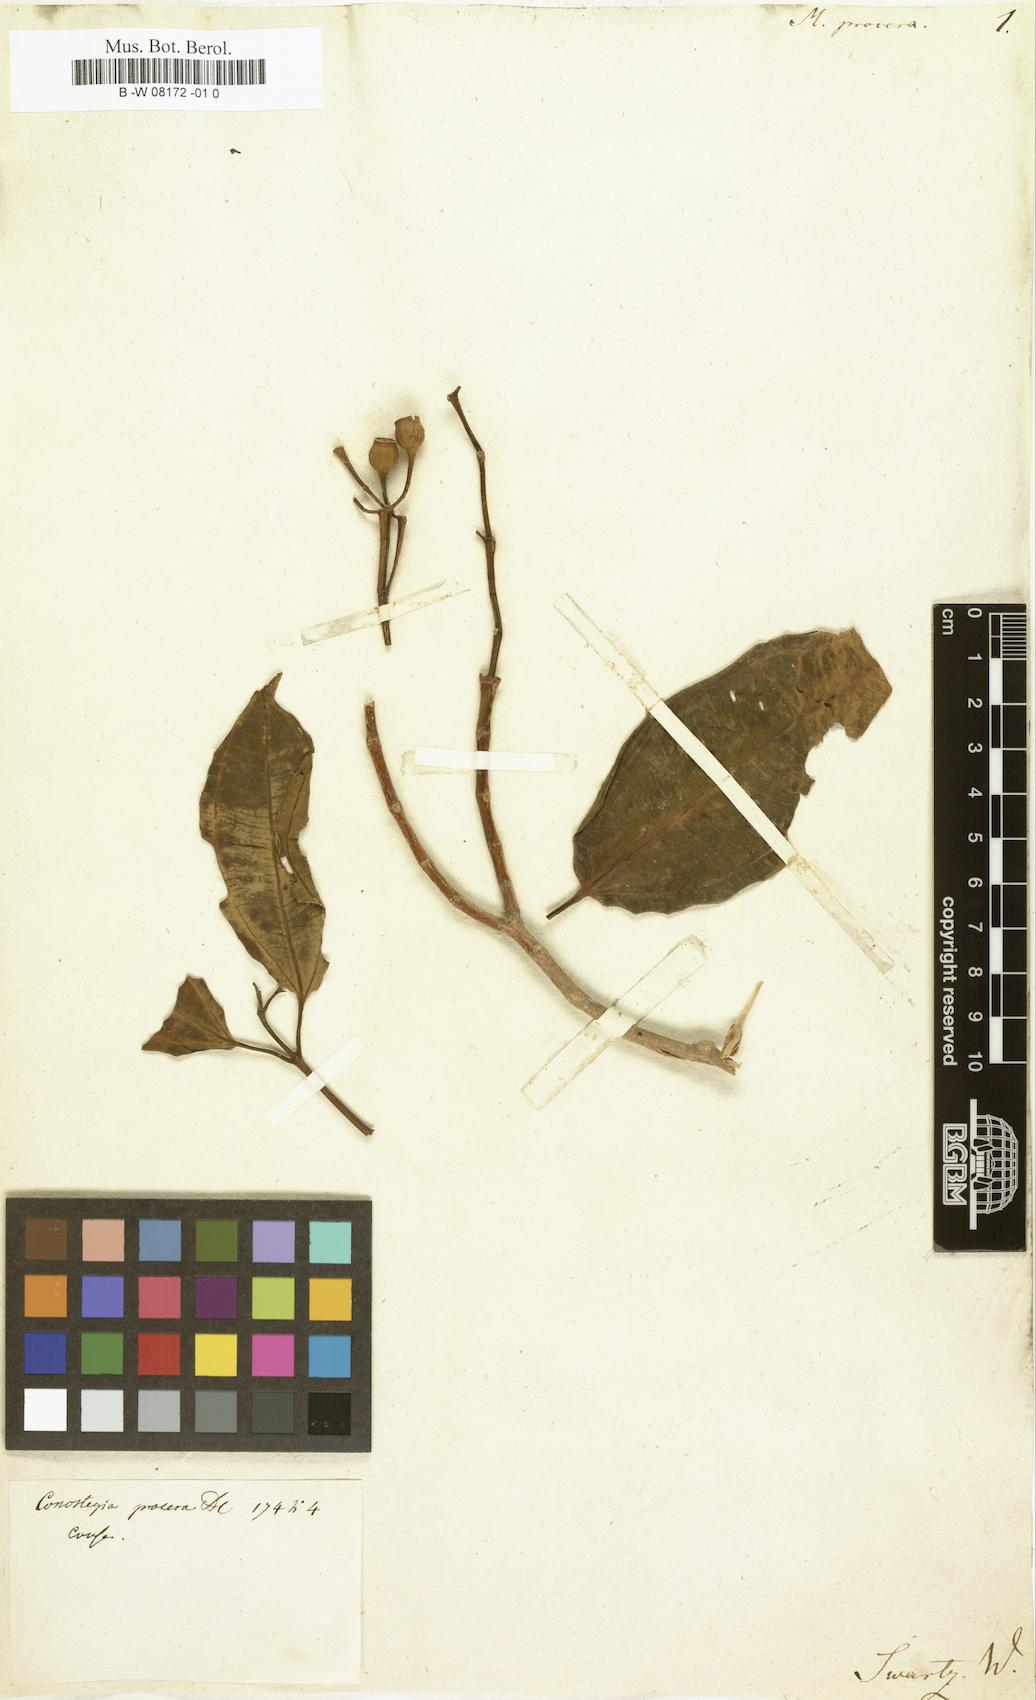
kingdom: Plantae
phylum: Tracheophyta
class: Magnoliopsida
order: Myrtales
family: Melastomataceae
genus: Melastoma
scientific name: Melastoma procerum
